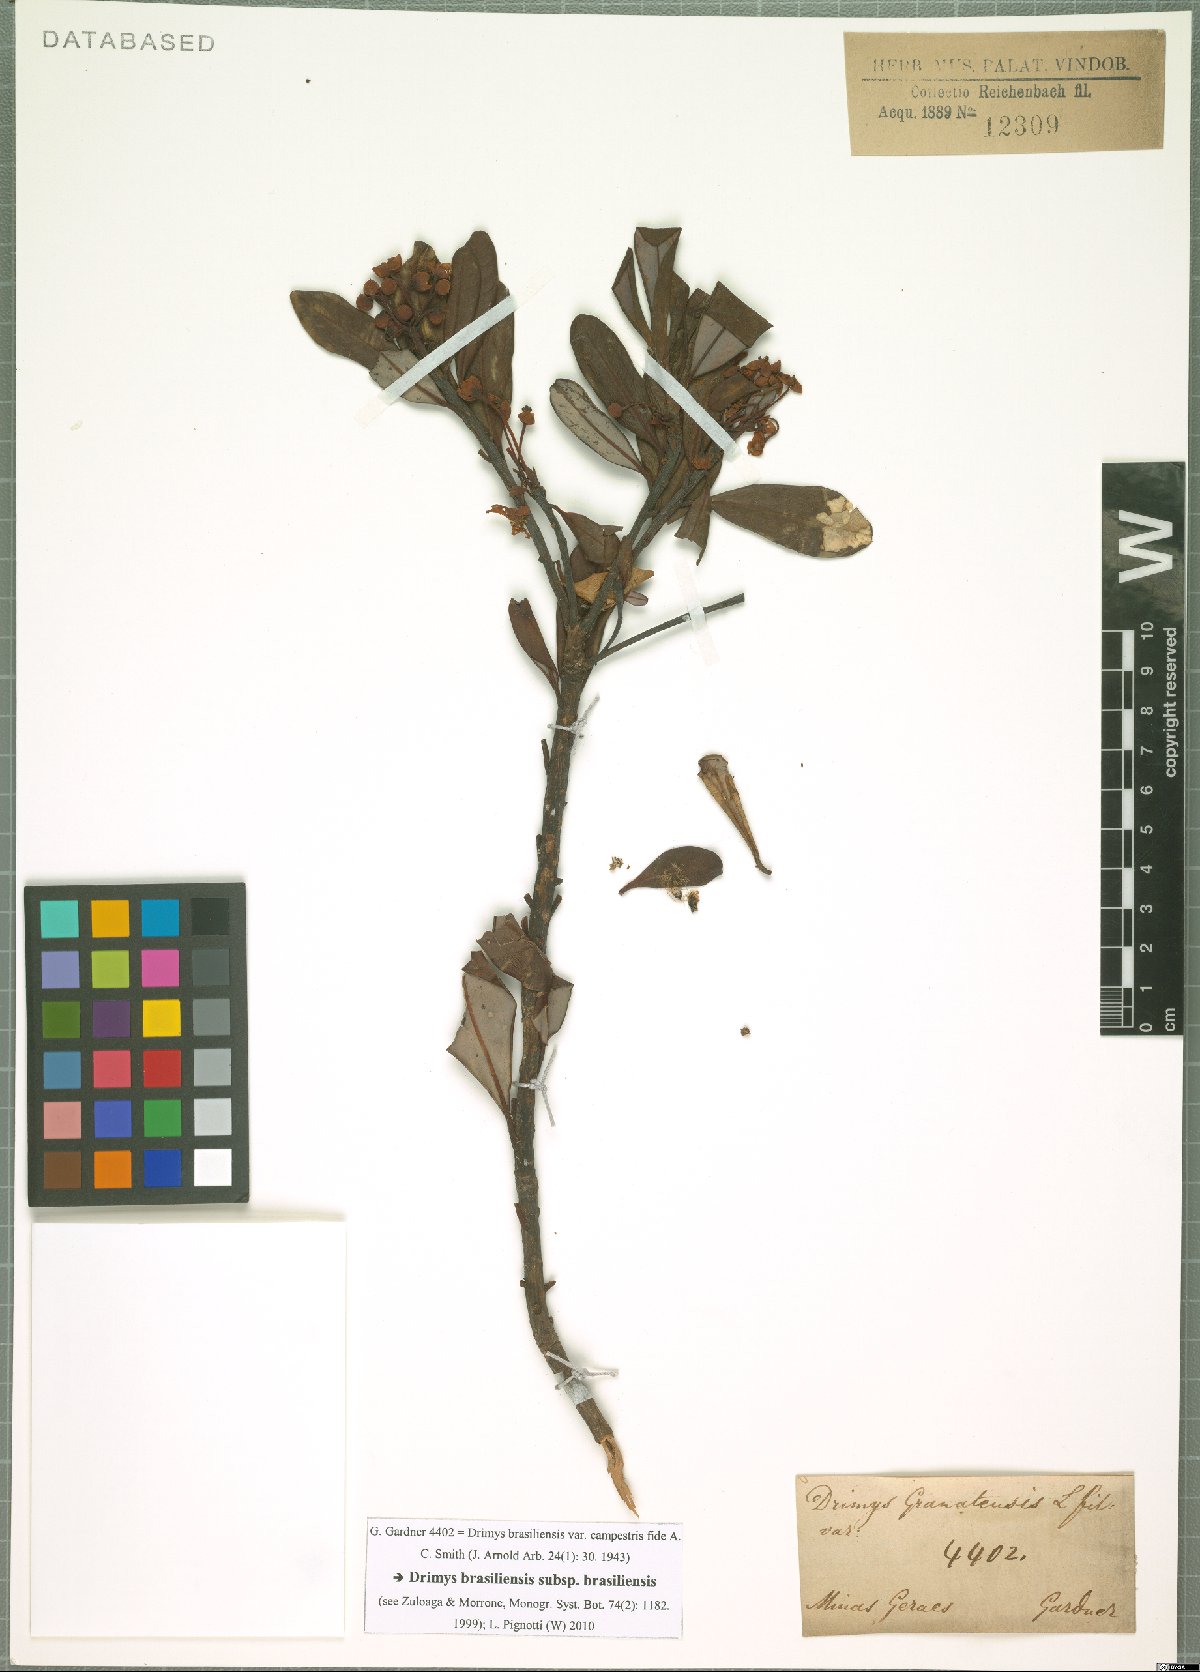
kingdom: Plantae
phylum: Tracheophyta
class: Magnoliopsida
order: Canellales
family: Winteraceae
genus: Drimys
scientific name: Drimys brasiliensis
